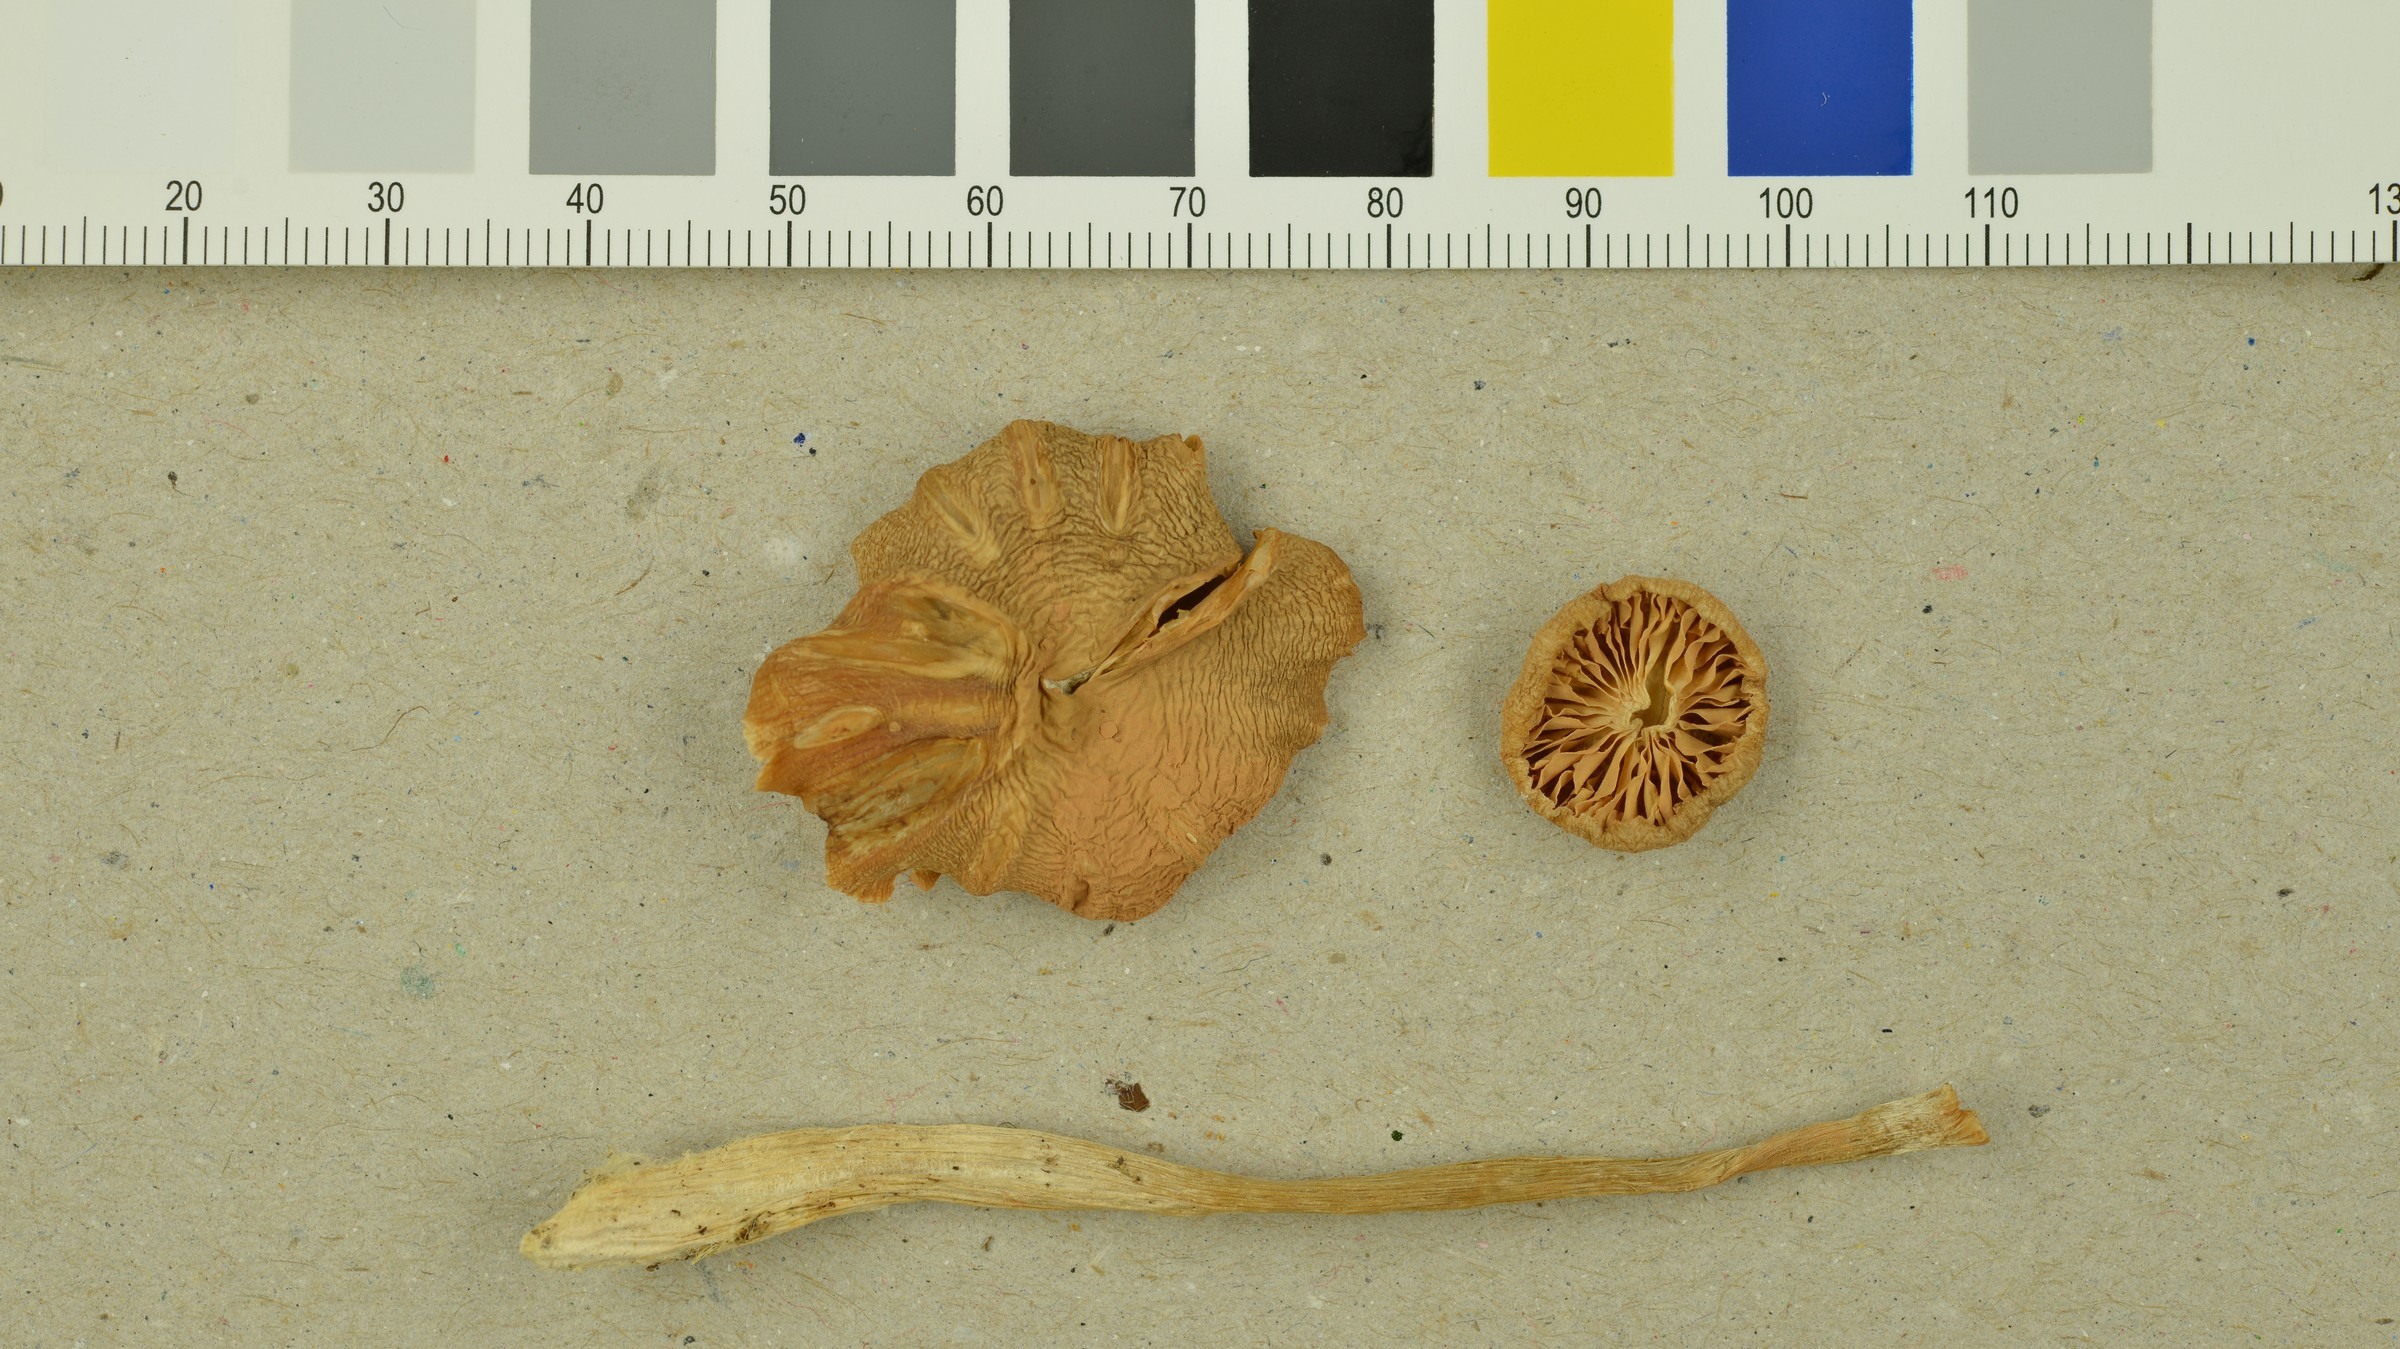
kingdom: Fungi
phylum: Basidiomycota
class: Agaricomycetes
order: Agaricales
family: Entolomataceae
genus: Entoloma
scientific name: Entoloma rhodopolium
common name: Wood pinkgill
